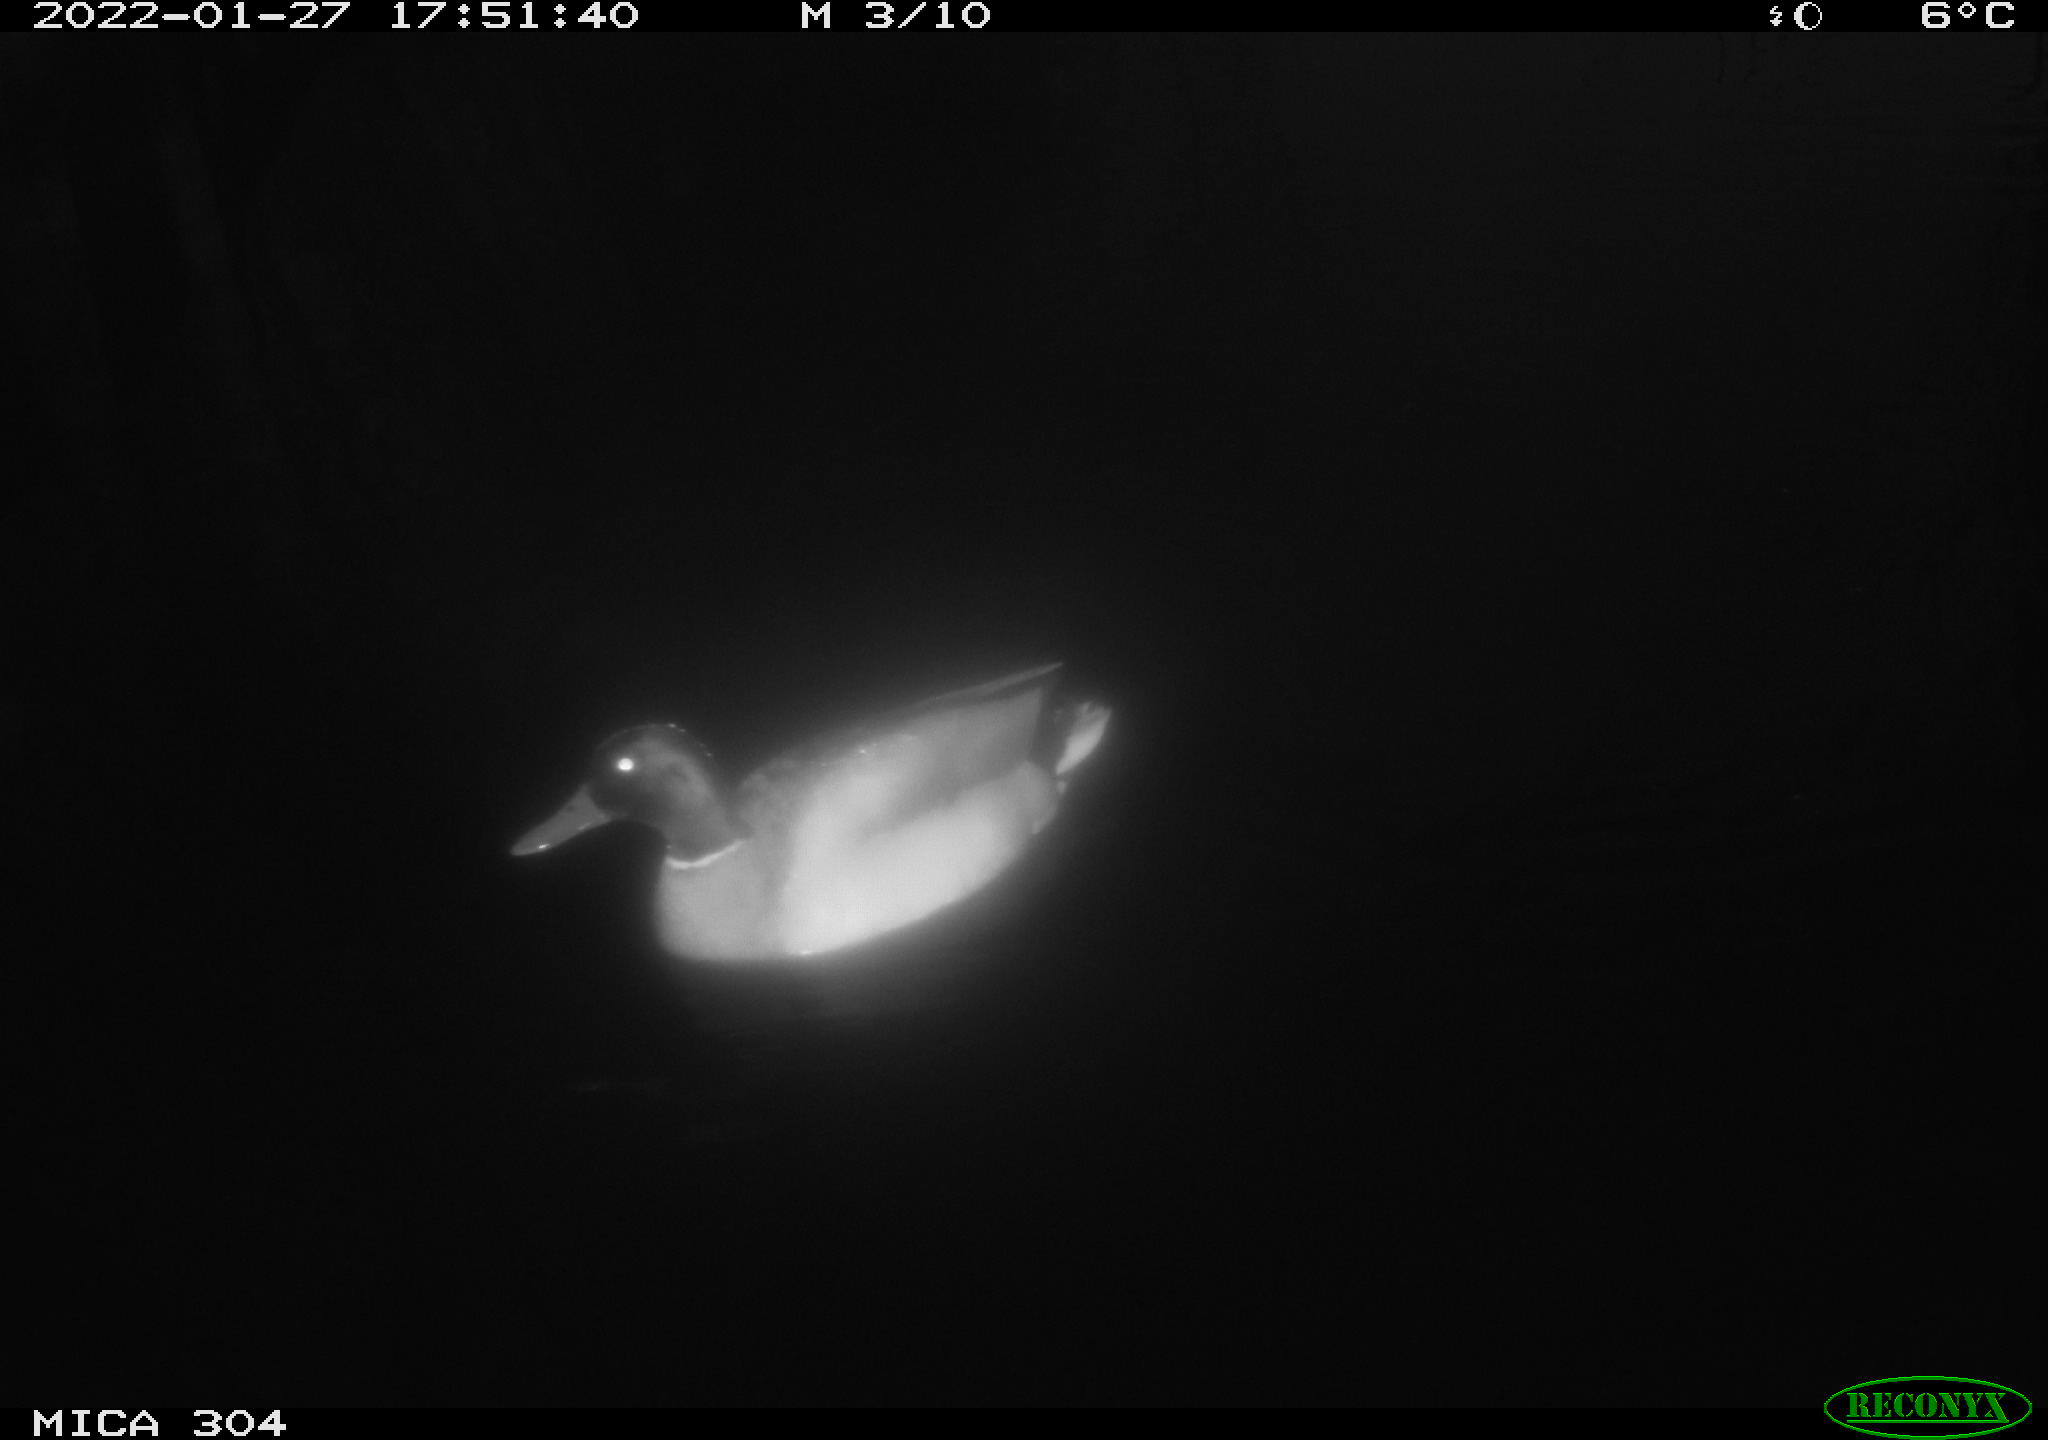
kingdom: Animalia
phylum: Chordata
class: Aves
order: Anseriformes
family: Anatidae
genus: Anas
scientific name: Anas
